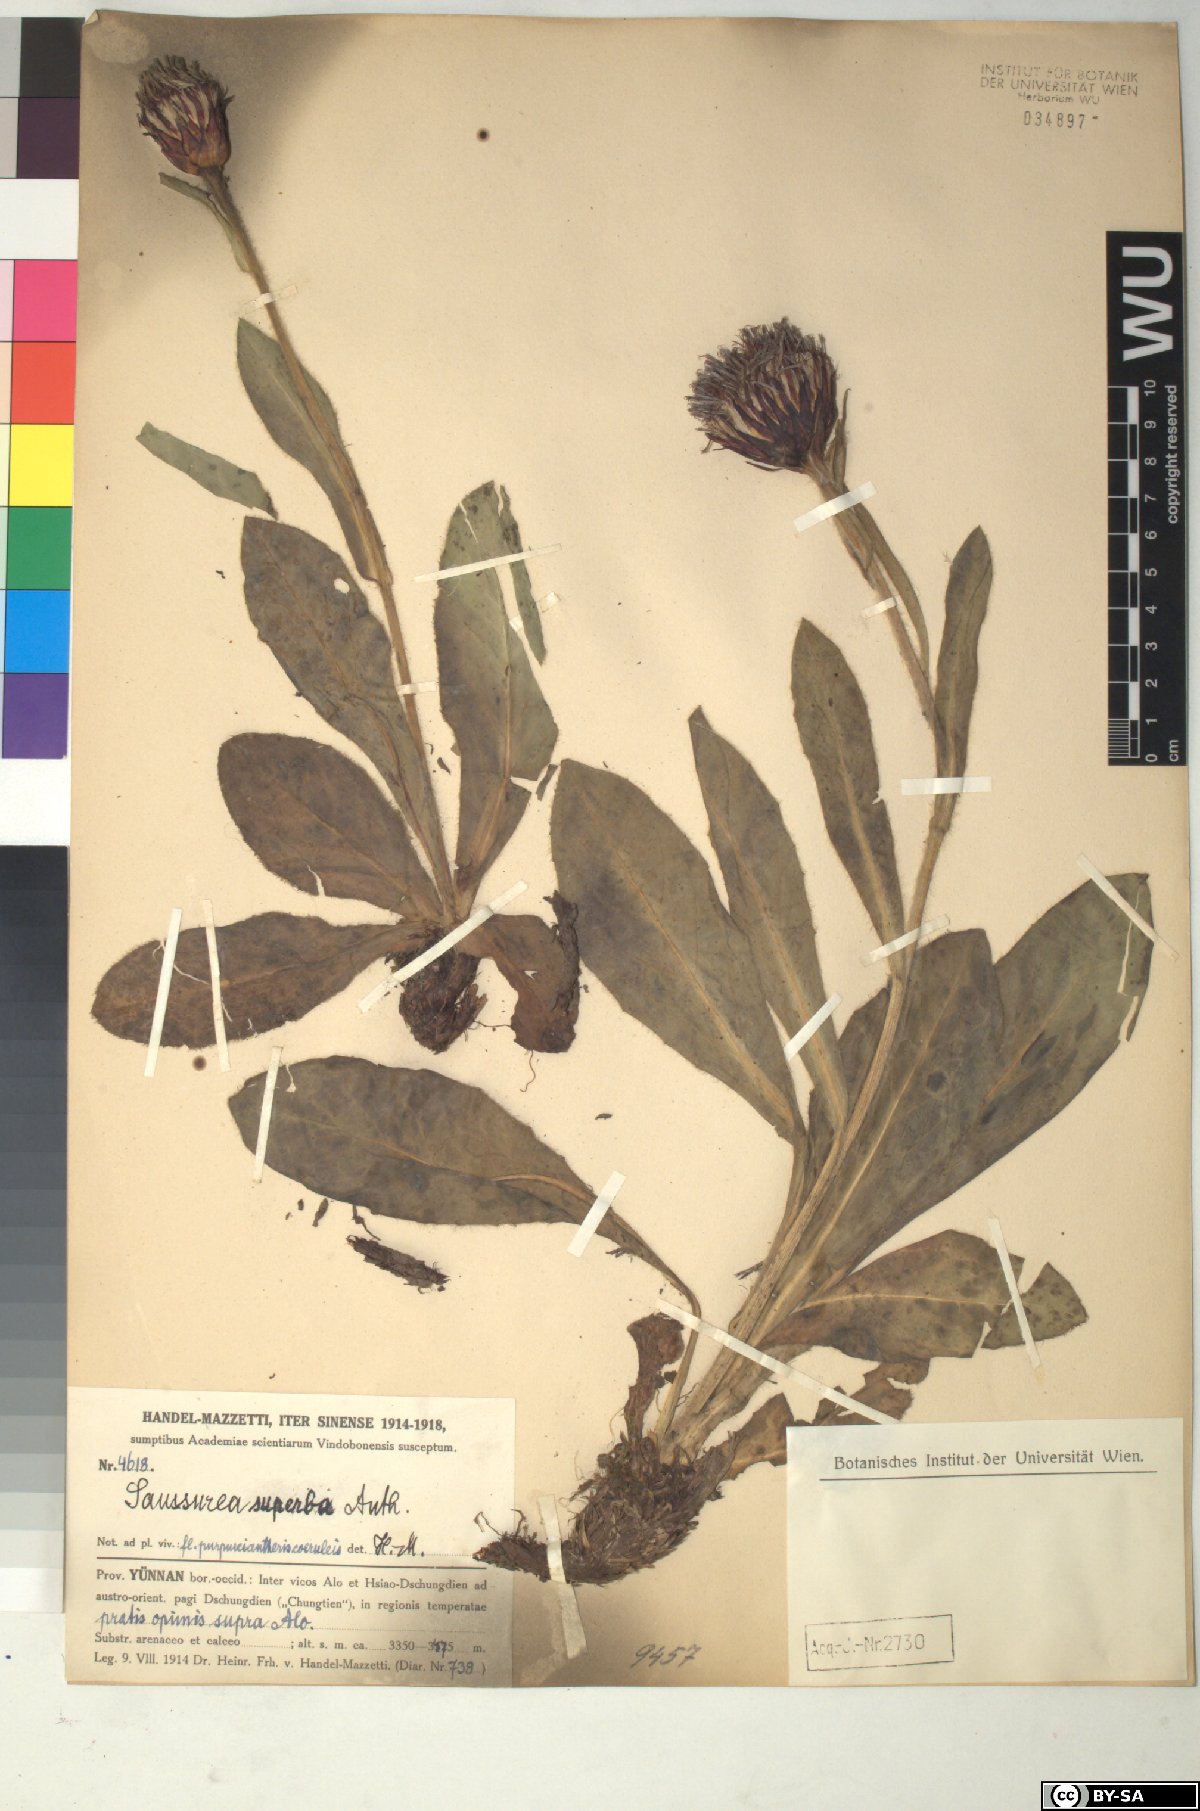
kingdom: Plantae
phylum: Tracheophyta
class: Magnoliopsida
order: Asterales
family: Asteraceae
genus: Saussurea
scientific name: Saussurea superba
